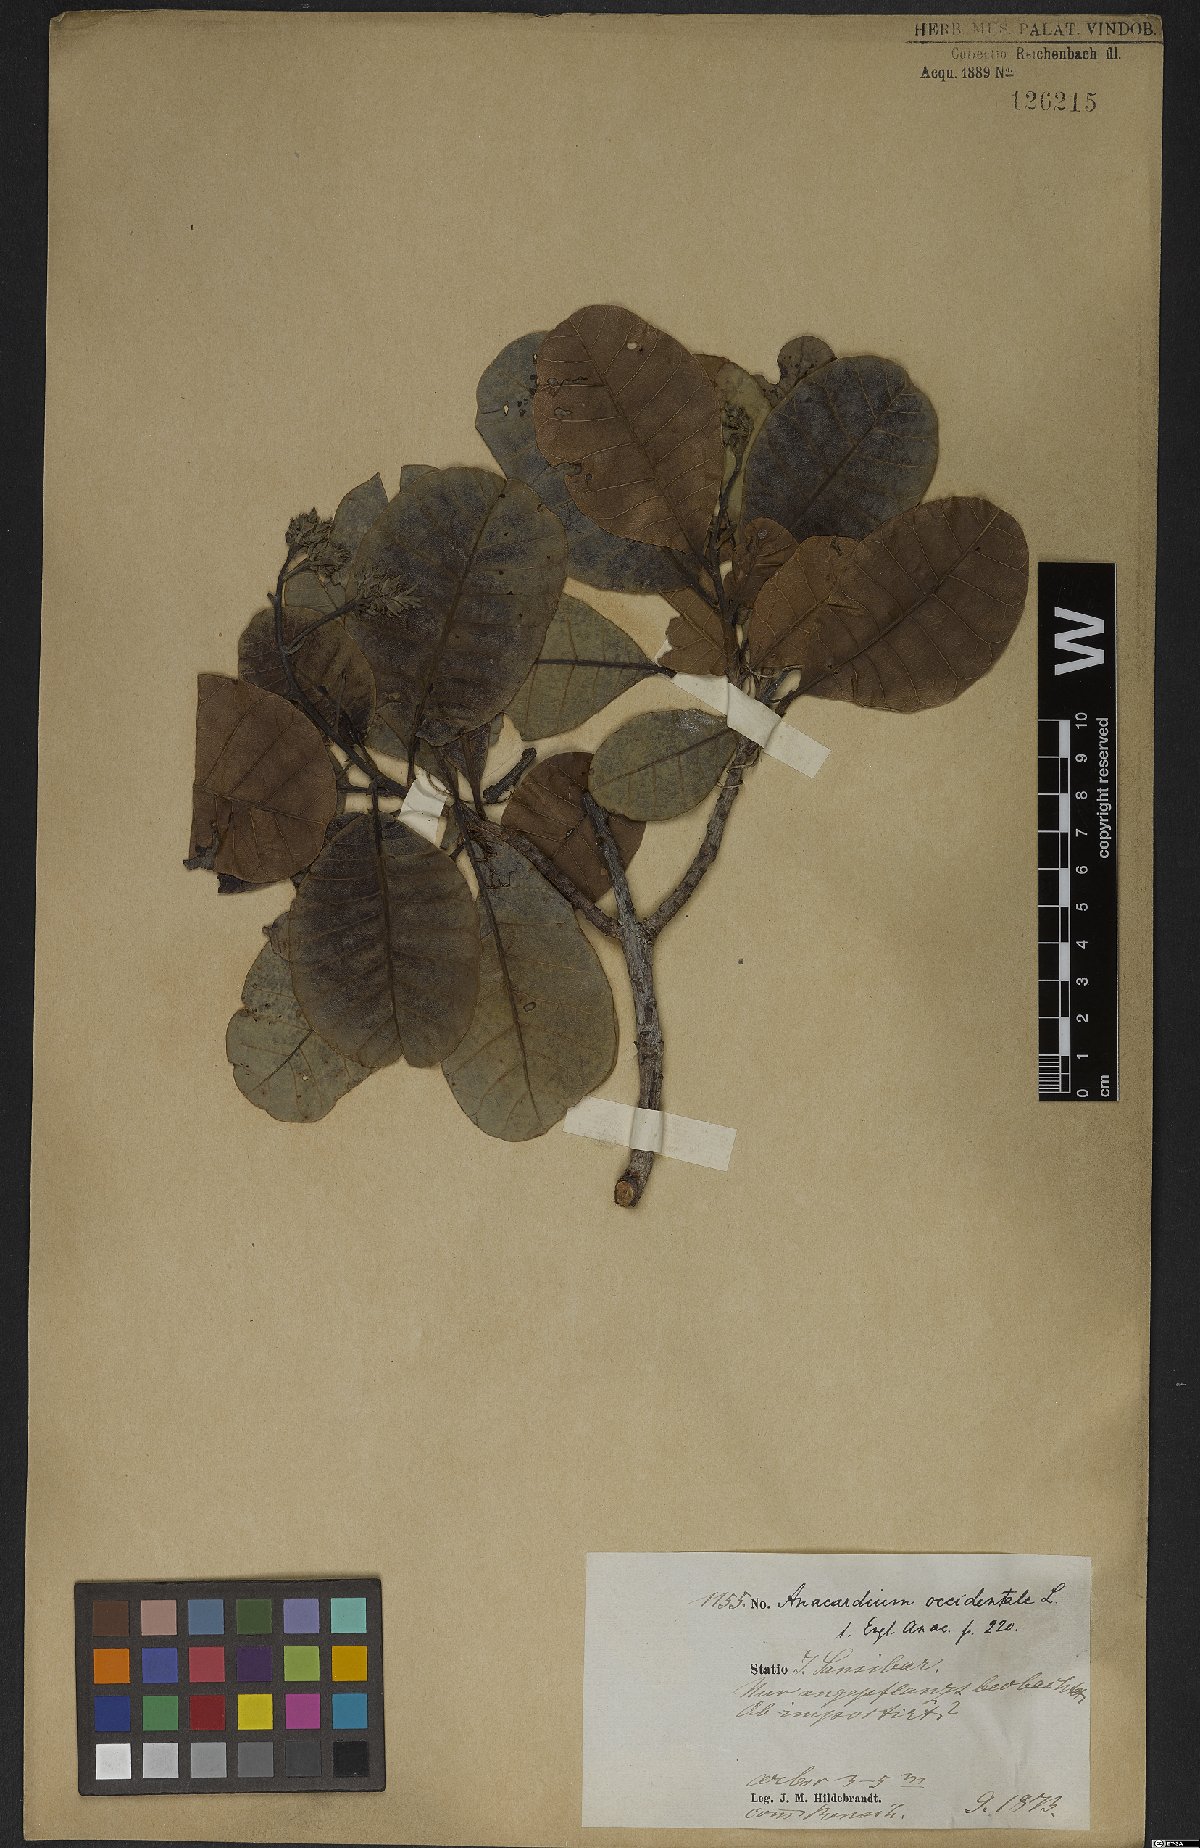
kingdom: Plantae
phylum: Tracheophyta
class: Magnoliopsida
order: Sapindales
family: Anacardiaceae
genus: Anacardium
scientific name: Anacardium occidentale
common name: Cashew
